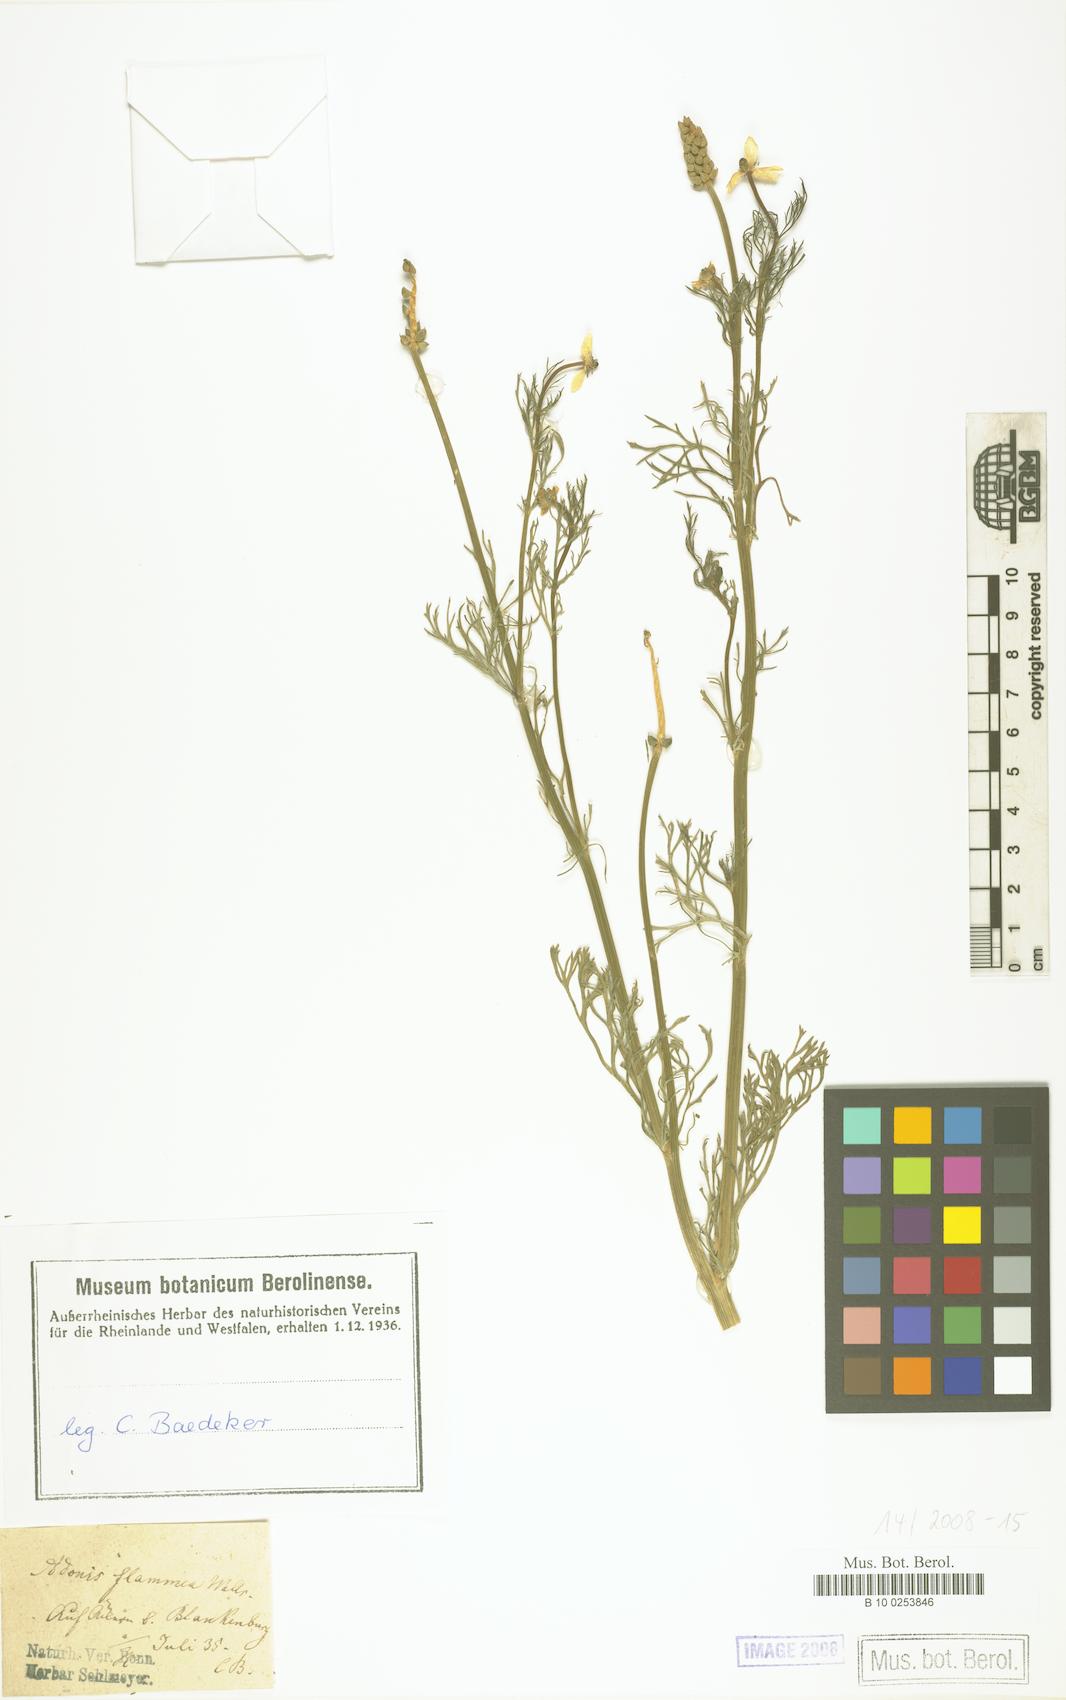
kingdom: Plantae
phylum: Tracheophyta
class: Magnoliopsida
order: Ranunculales
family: Ranunculaceae
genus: Adonis
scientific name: Adonis flammea
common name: Large pheasant's-eye
